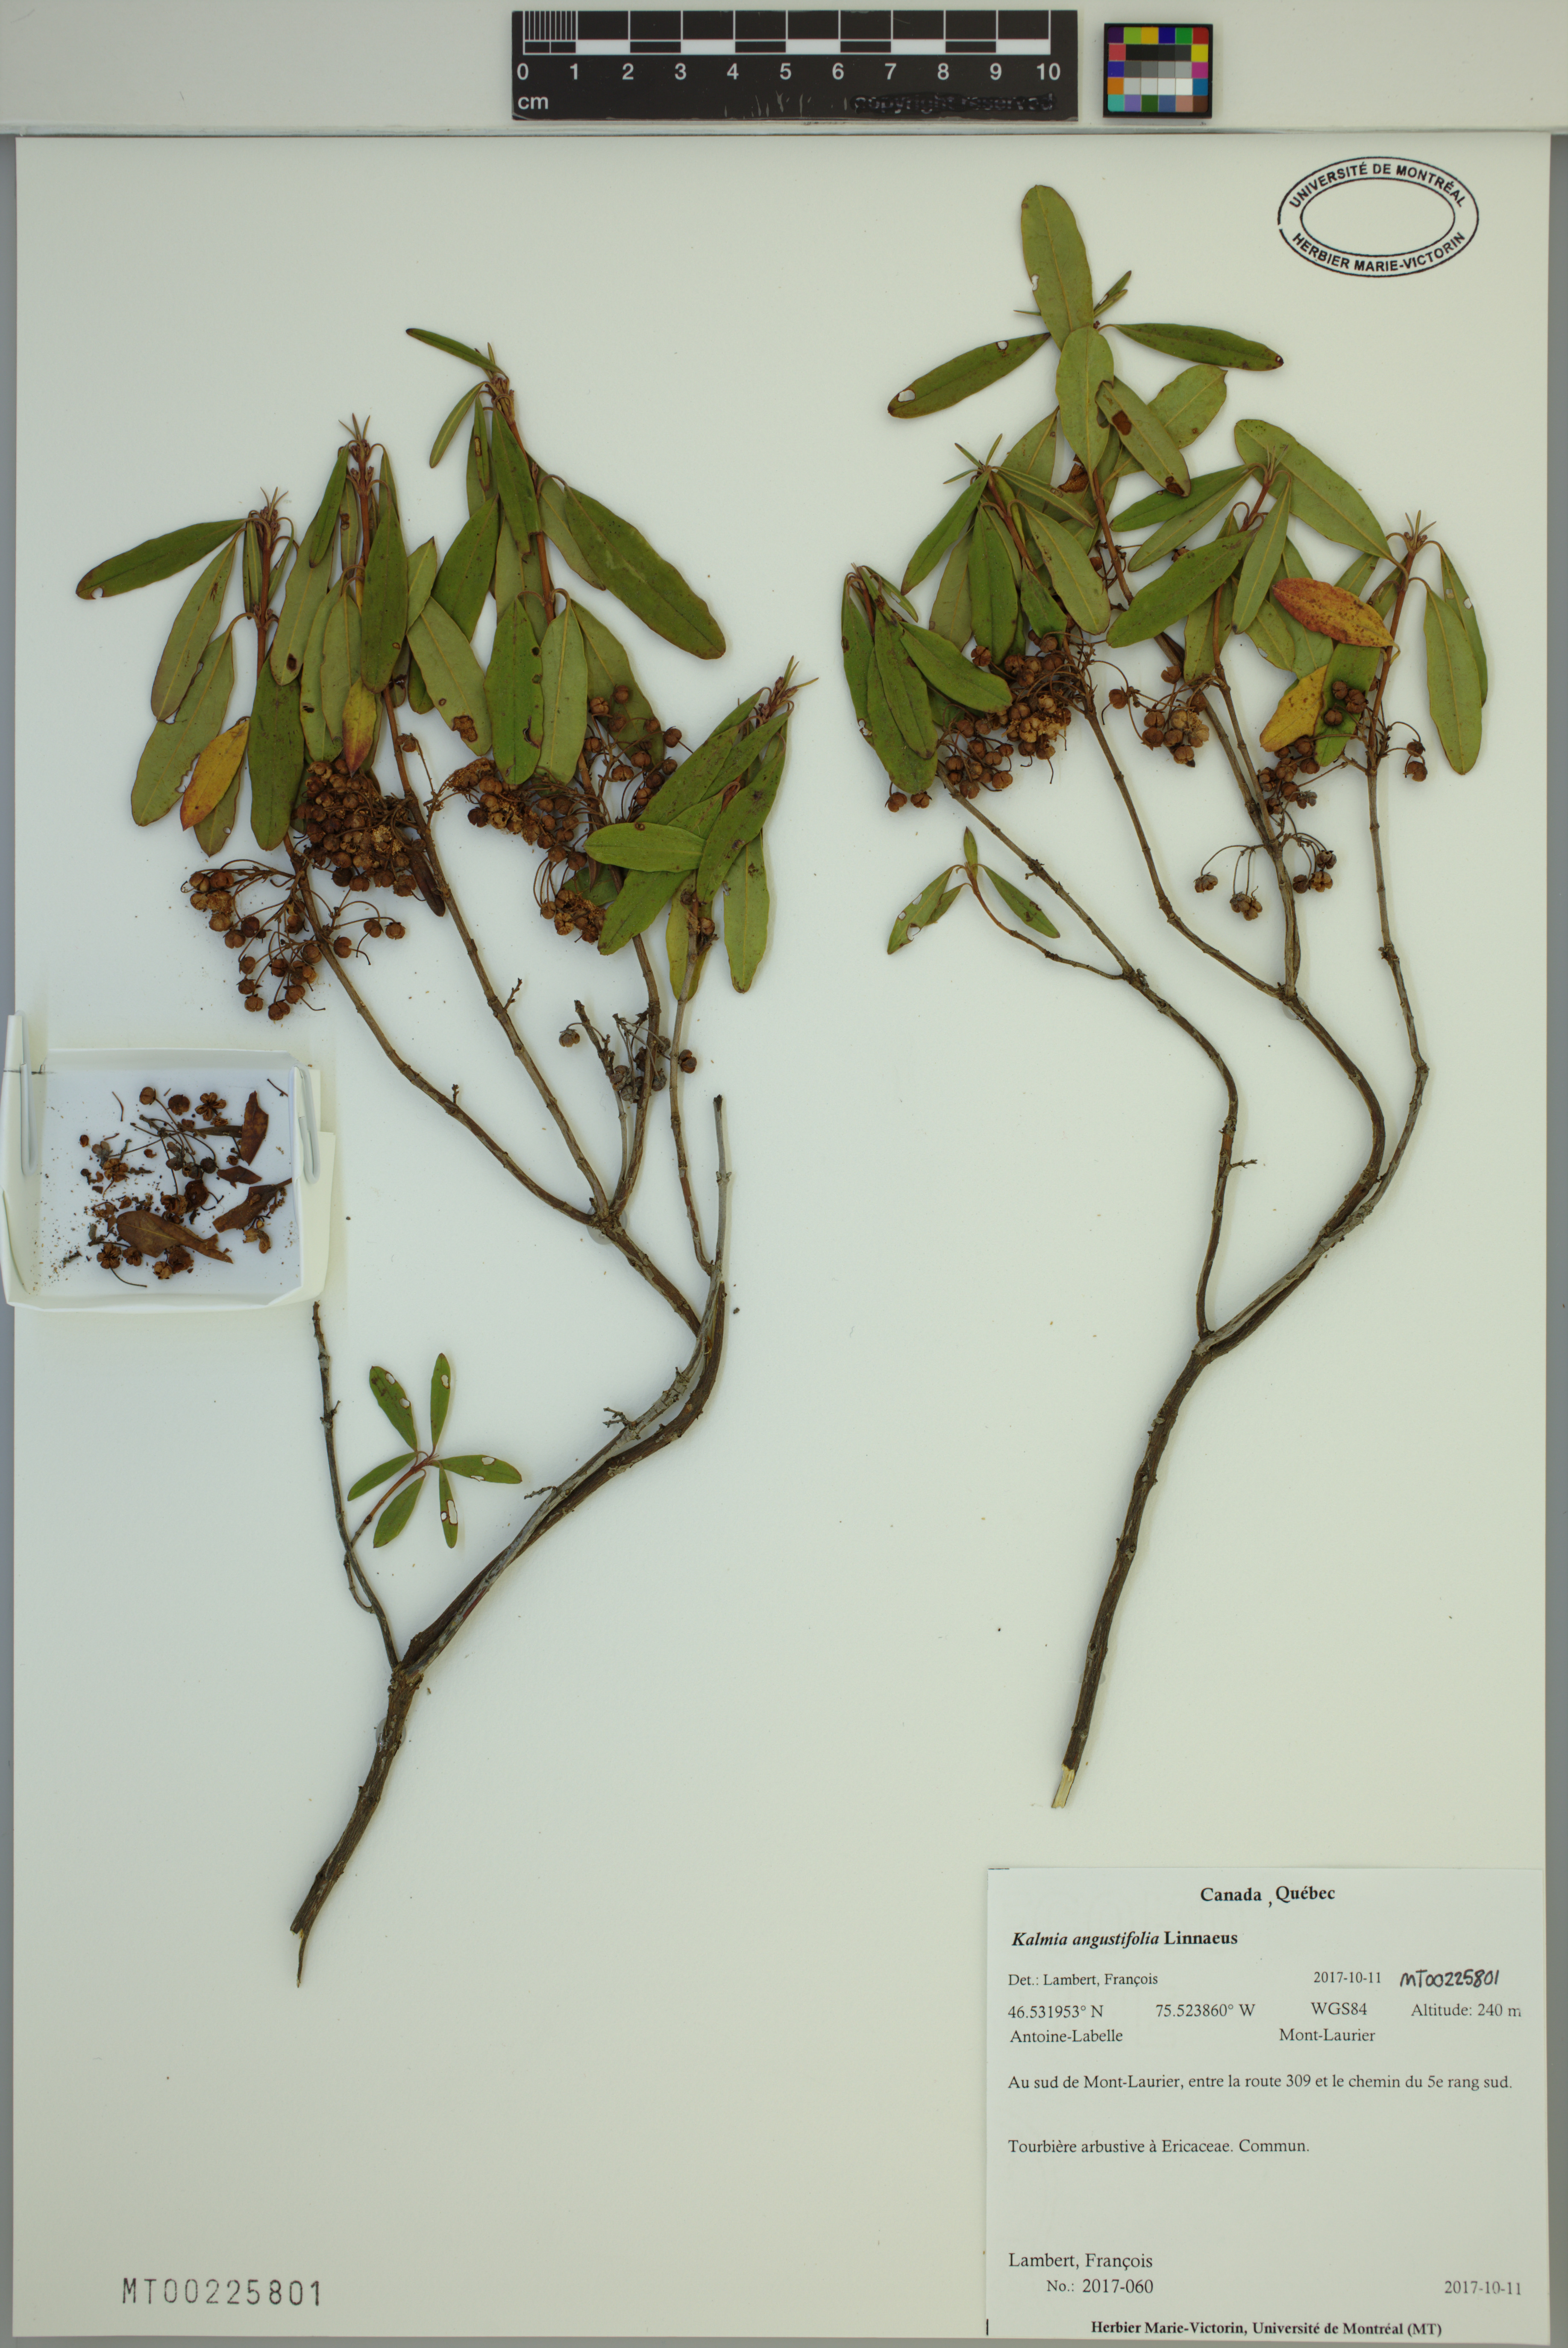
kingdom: Plantae
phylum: Tracheophyta
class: Magnoliopsida
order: Ericales
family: Ericaceae
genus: Kalmia
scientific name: Kalmia angustifolia
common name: Sheep-laurel
